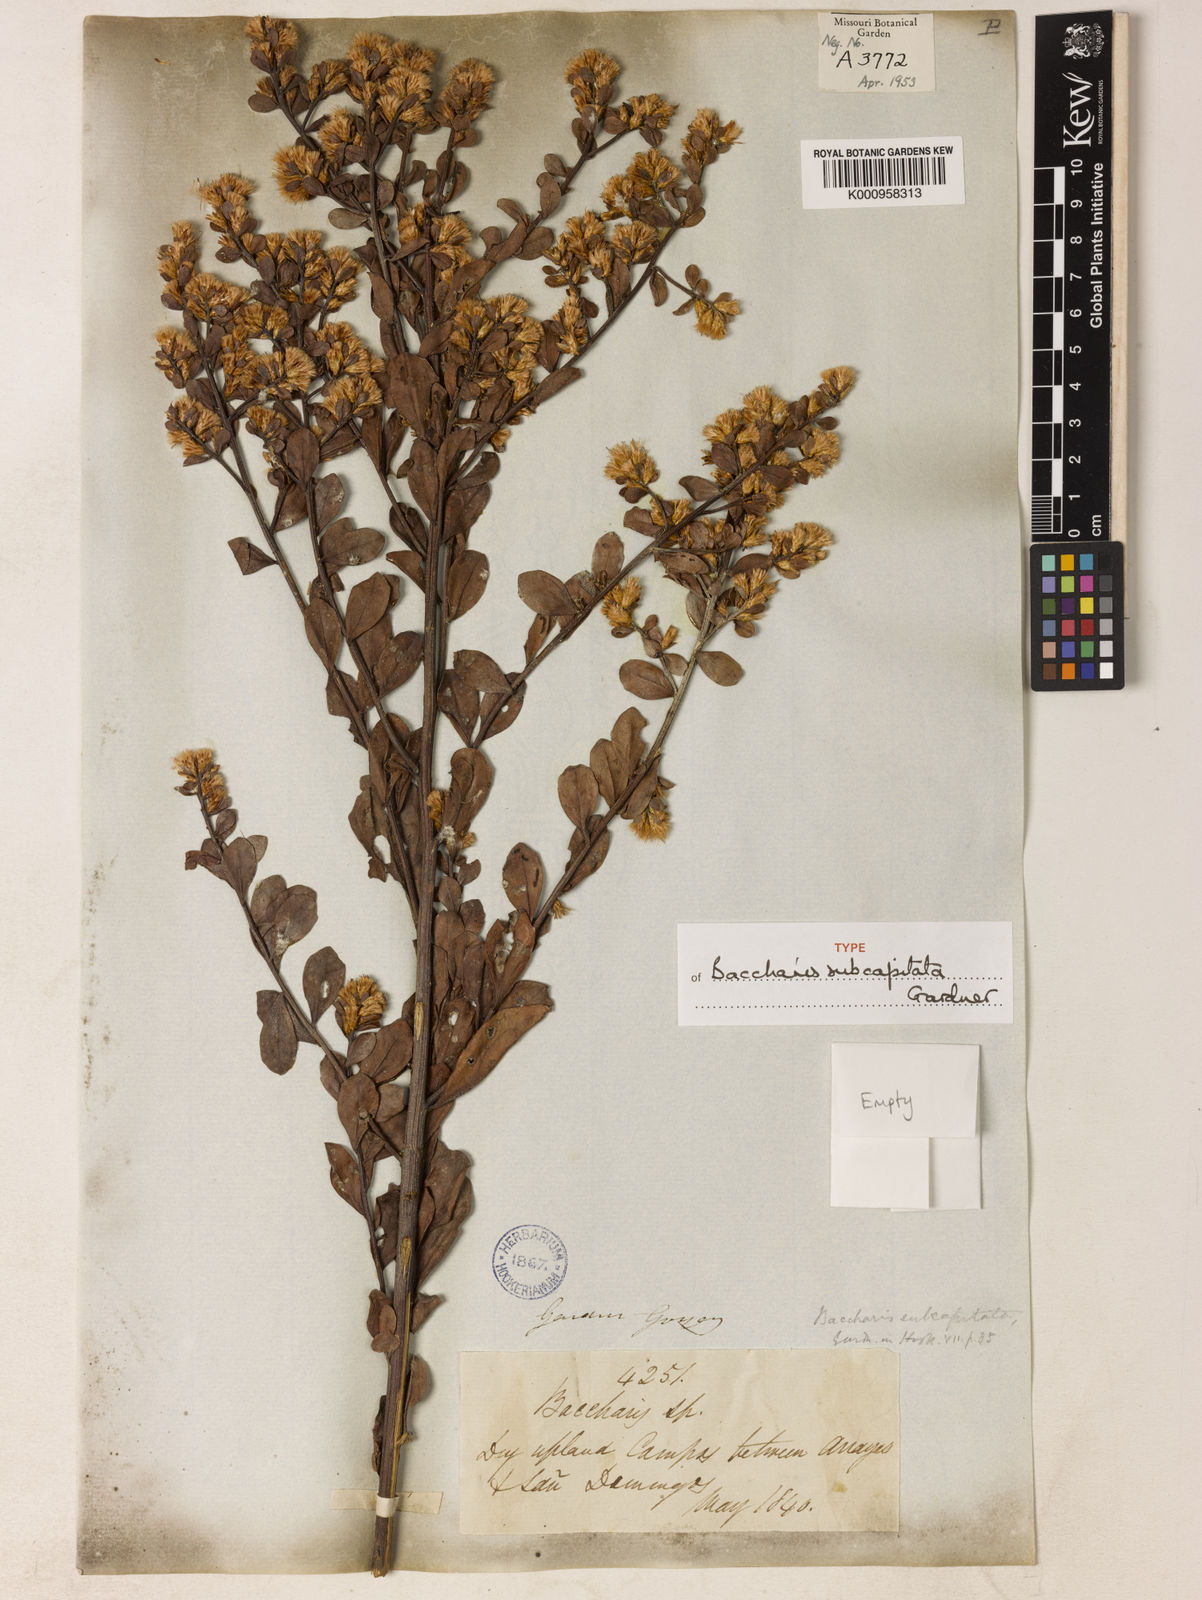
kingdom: Plantae
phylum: Tracheophyta
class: Magnoliopsida
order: Asterales
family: Asteraceae
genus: Baccharis
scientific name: Baccharis subdentata
